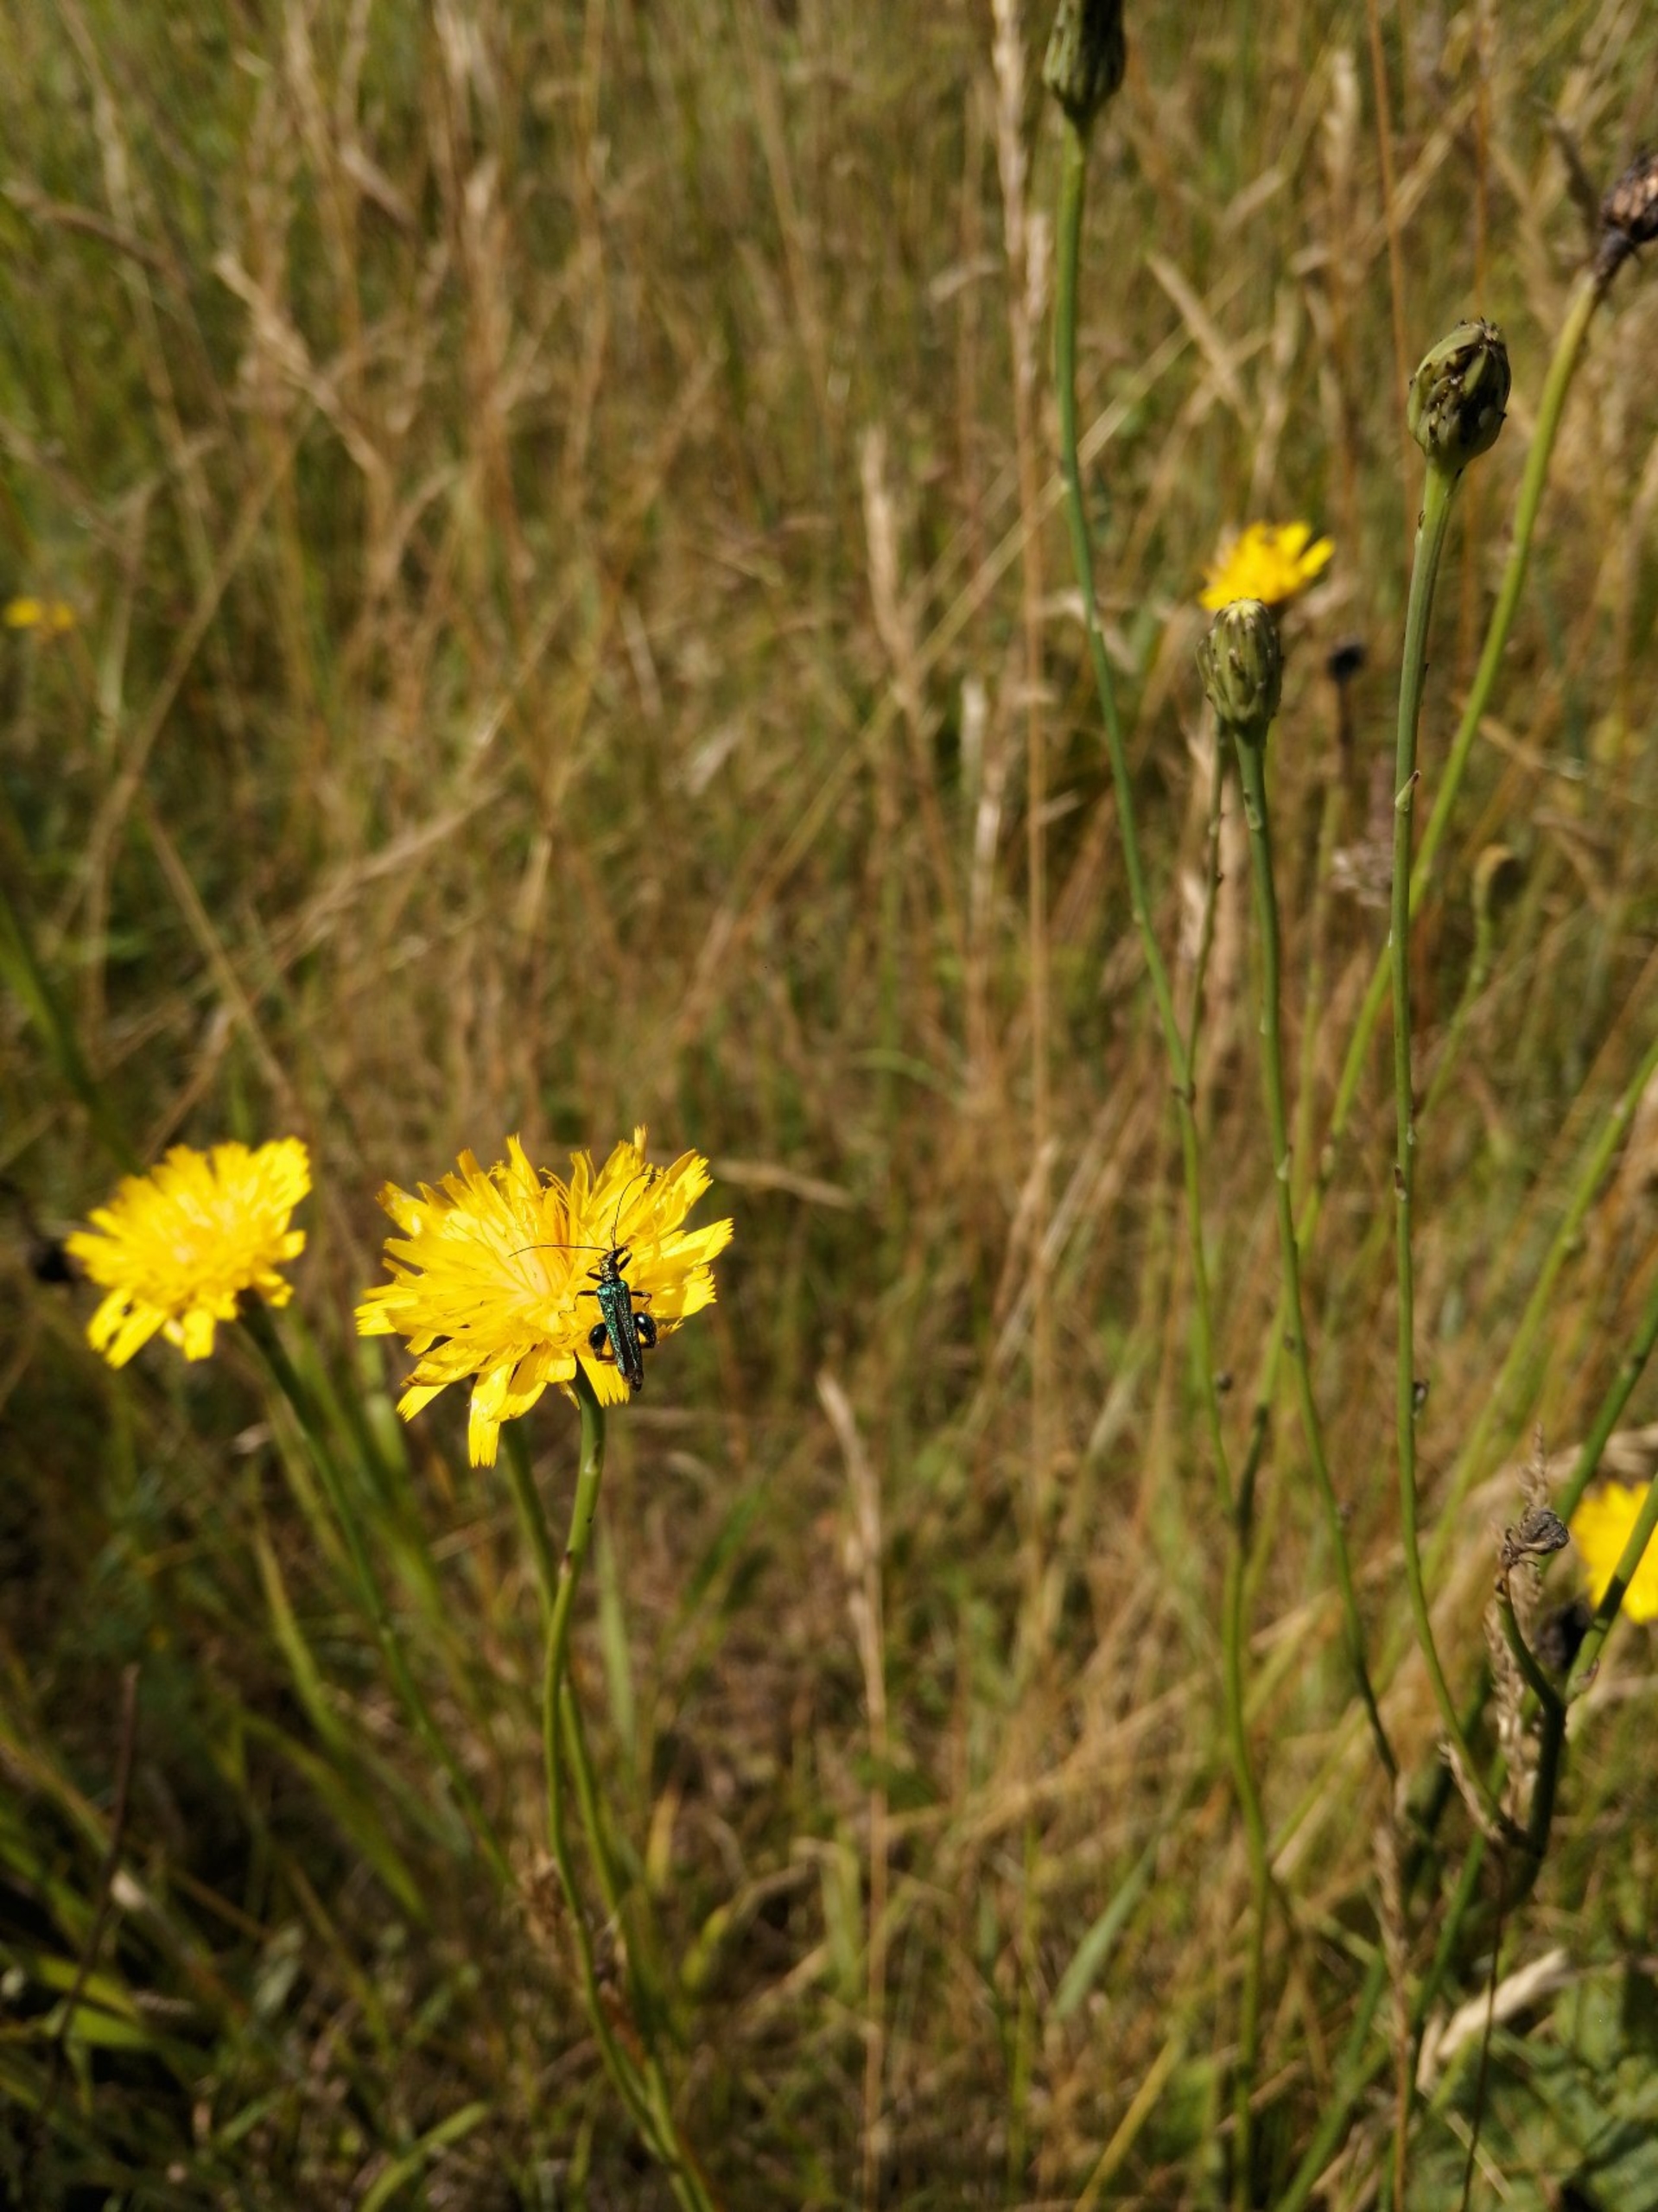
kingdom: Animalia
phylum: Arthropoda
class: Insecta
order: Coleoptera
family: Oedemeridae
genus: Oedemera
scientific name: Oedemera nobilis
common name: Tyklårssolbille
